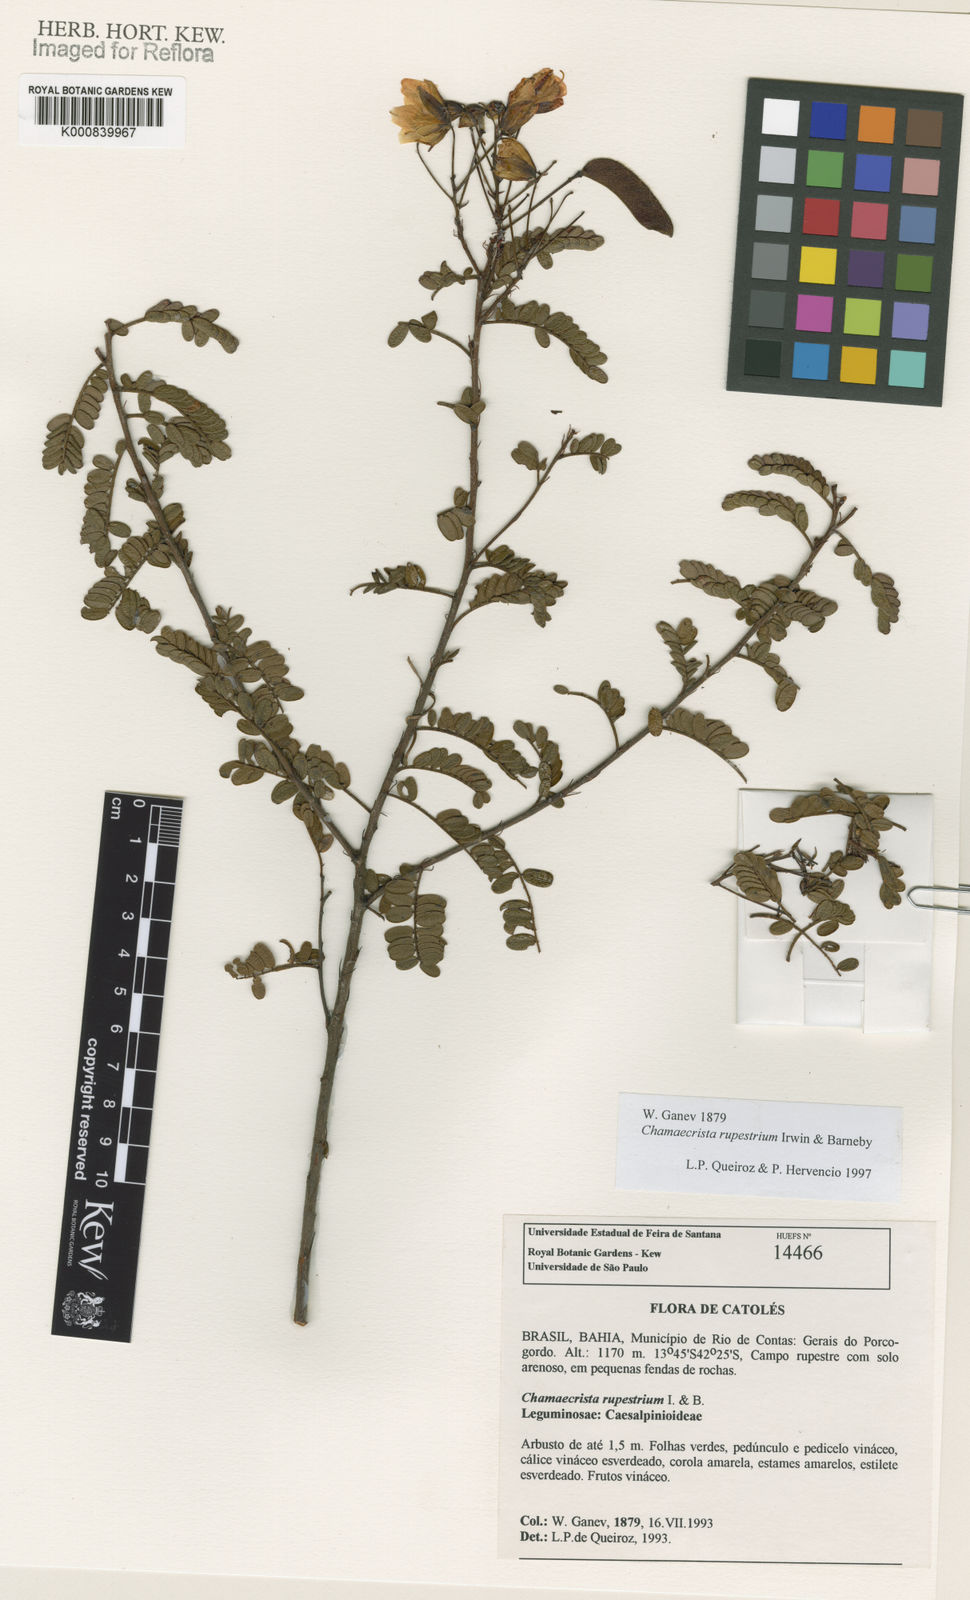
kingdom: Plantae
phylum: Tracheophyta
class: Magnoliopsida
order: Fabales
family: Fabaceae
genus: Chamaecrista
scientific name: Chamaecrista rupestrium
